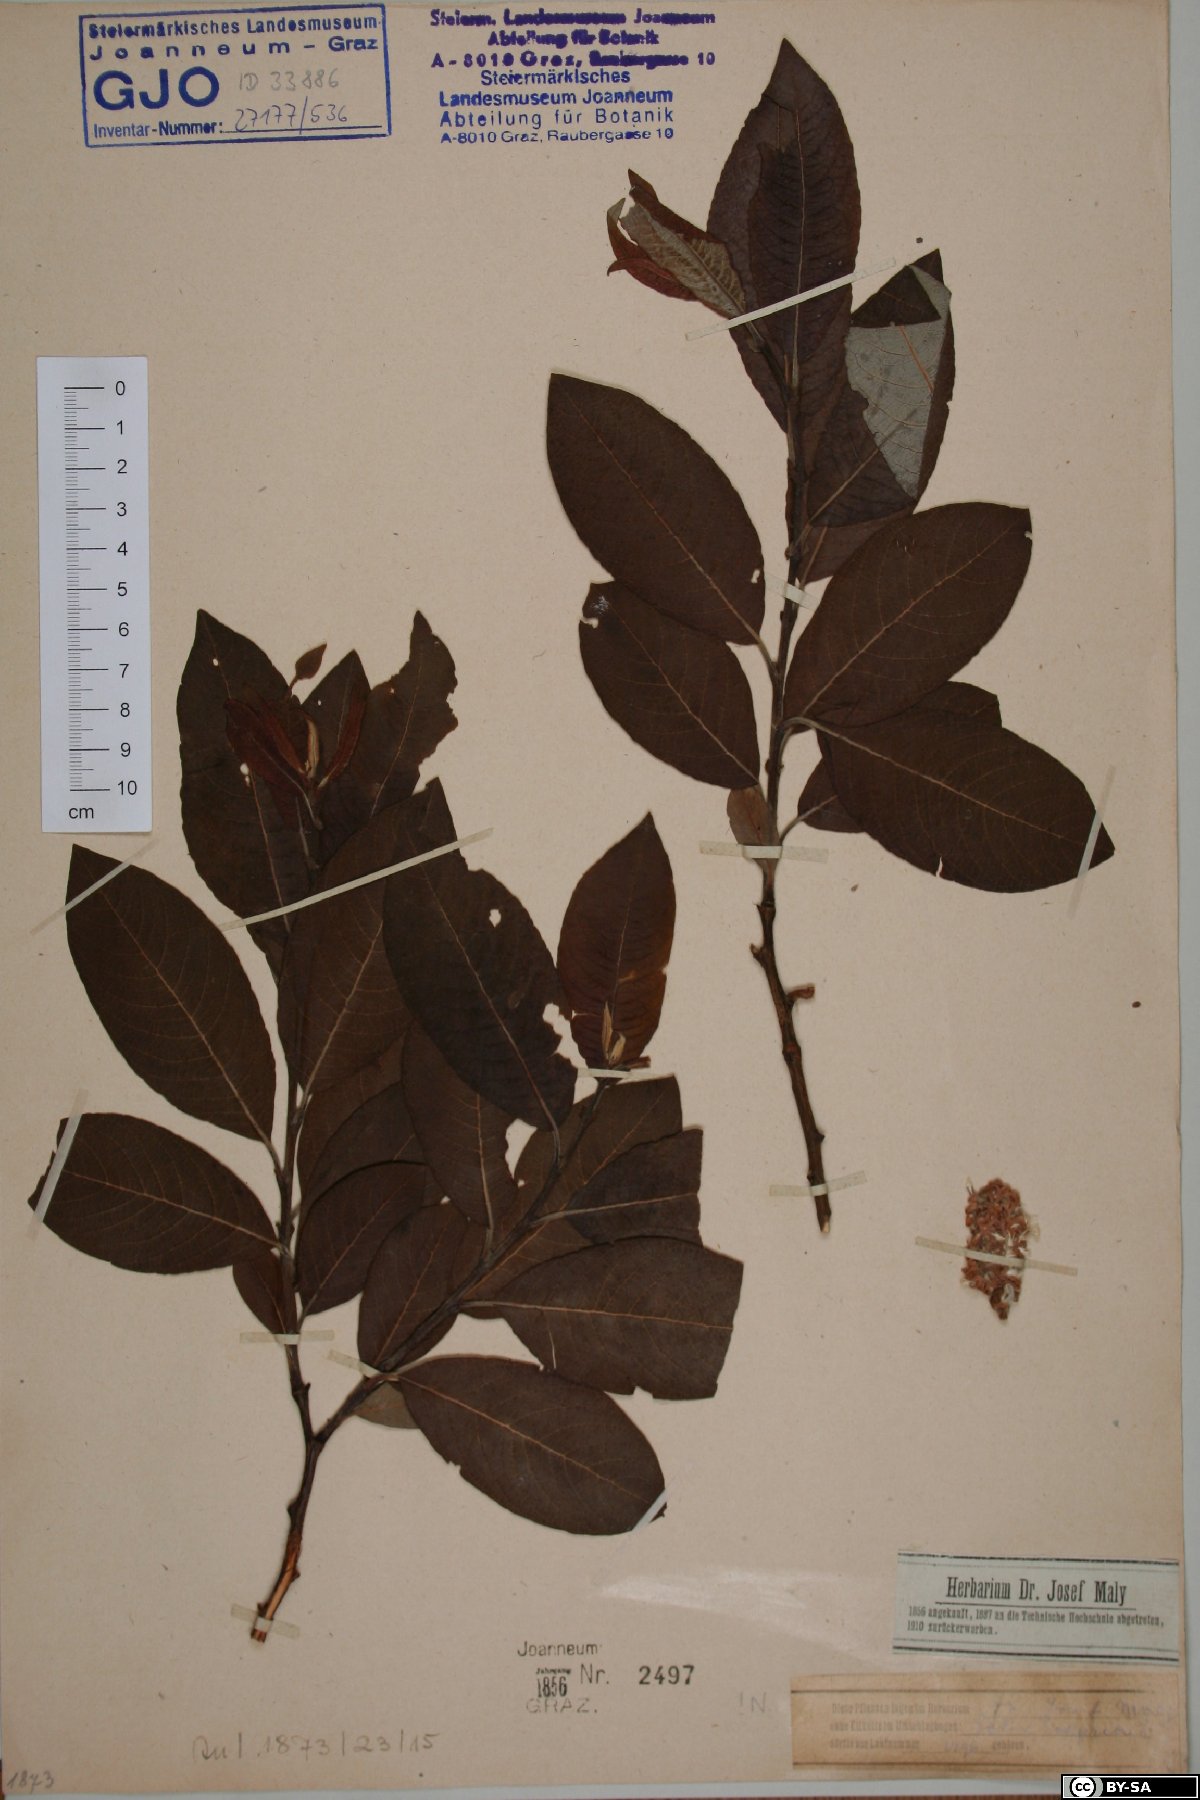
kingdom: Plantae
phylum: Tracheophyta
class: Magnoliopsida
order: Malpighiales
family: Salicaceae
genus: Salix
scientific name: Salix caprea
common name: Goat willow
